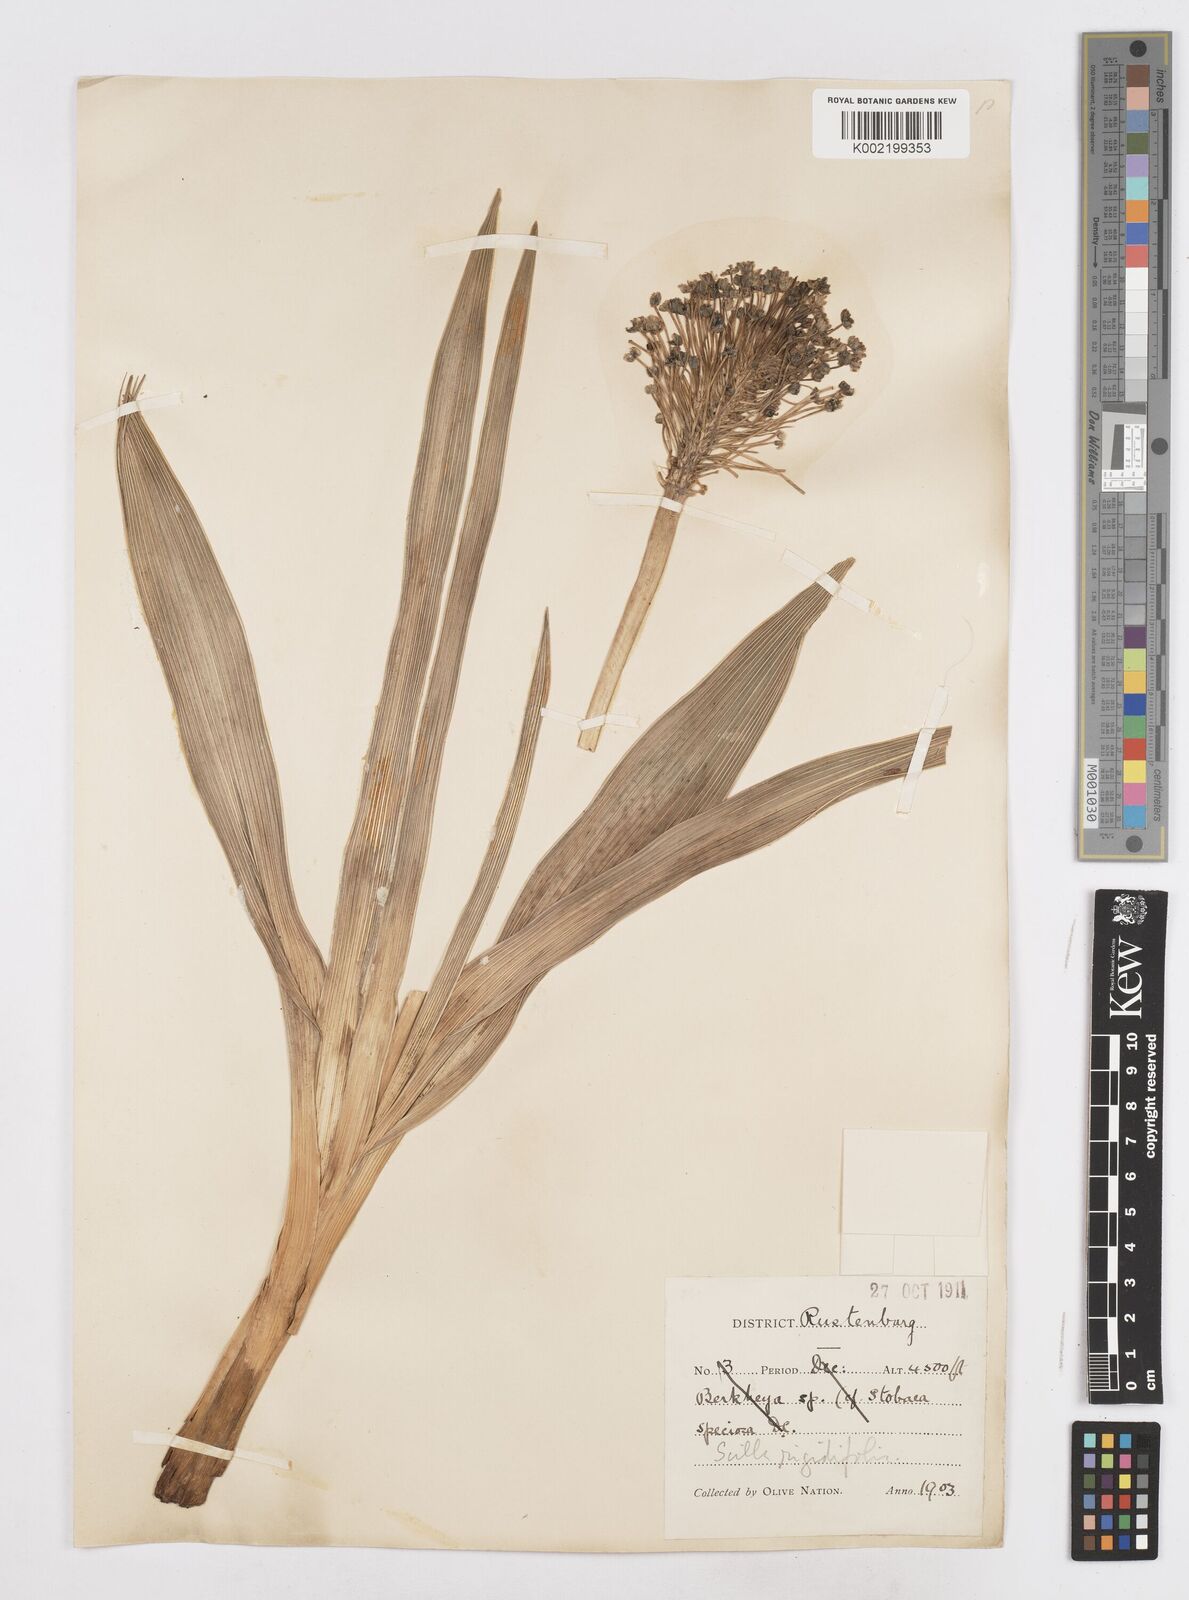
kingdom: Plantae
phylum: Tracheophyta
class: Liliopsida
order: Asparagales
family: Asparagaceae
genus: Schizocarphus
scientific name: Schizocarphus nervosus
